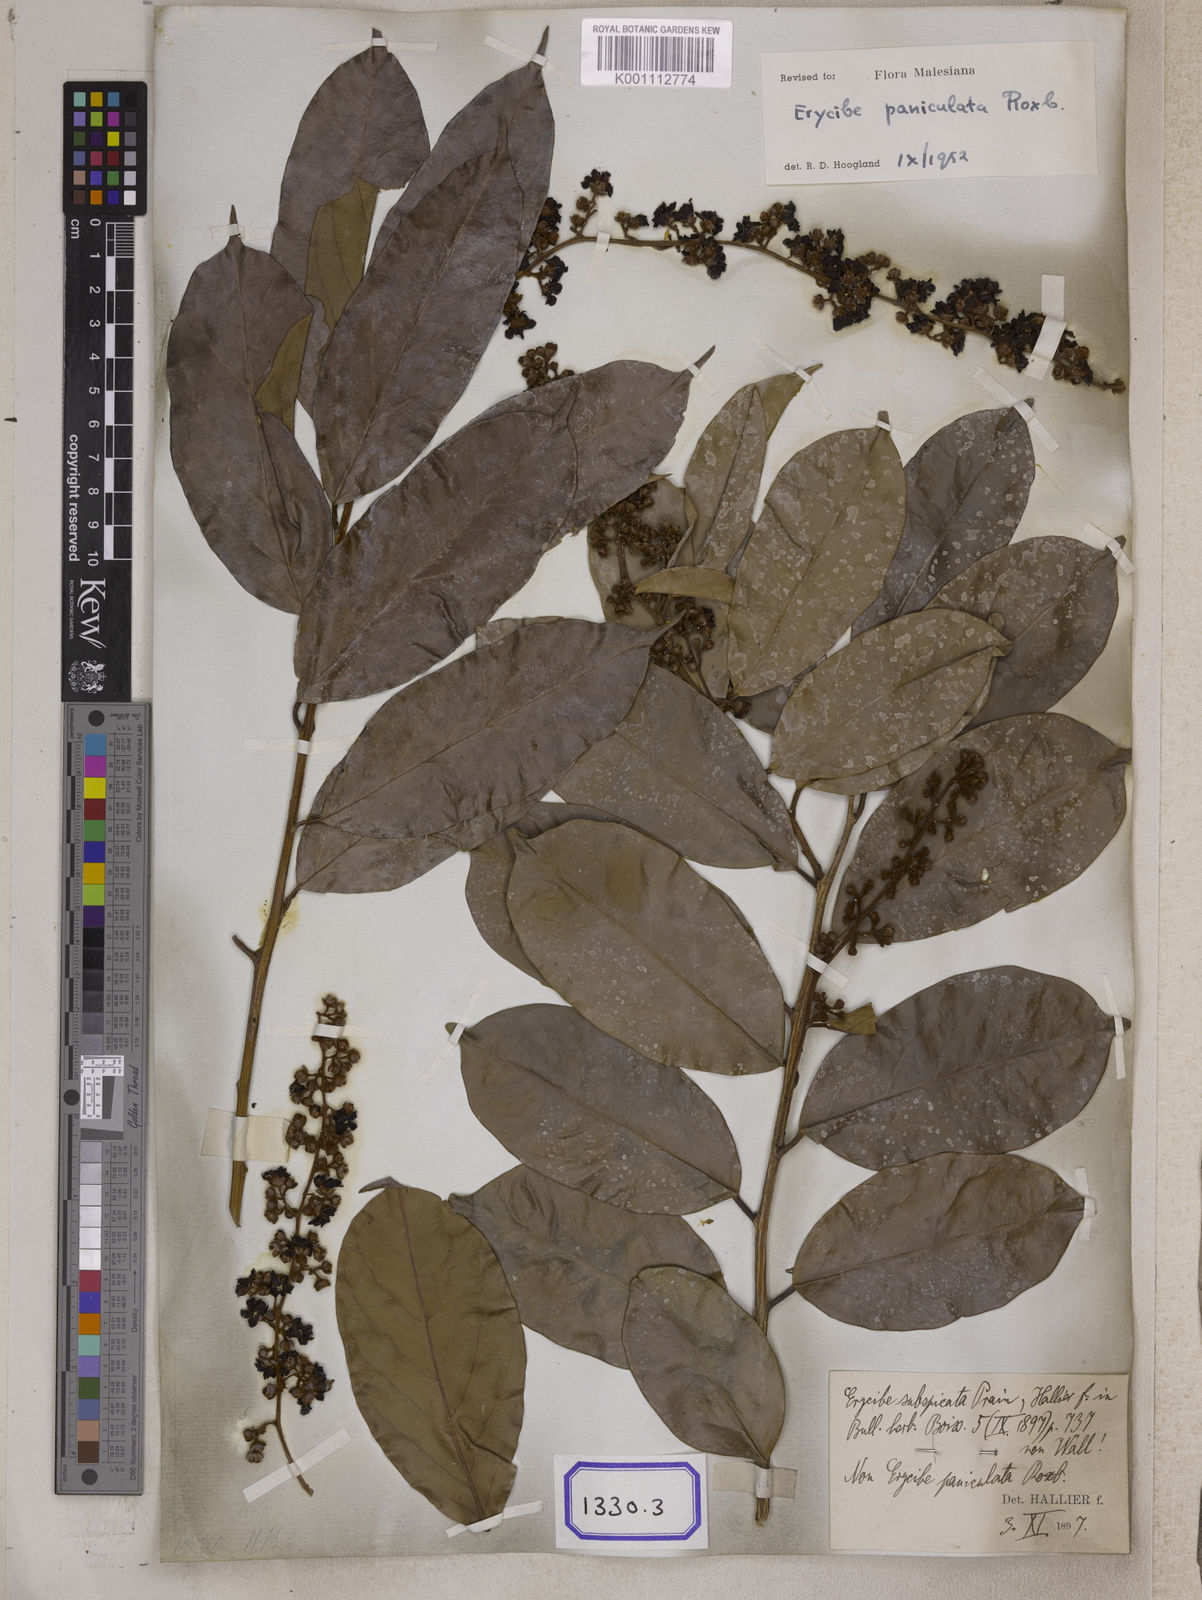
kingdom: Plantae
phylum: Tracheophyta
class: Magnoliopsida
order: Solanales
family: Convolvulaceae
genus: Erycibe
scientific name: Erycibe paniculata
